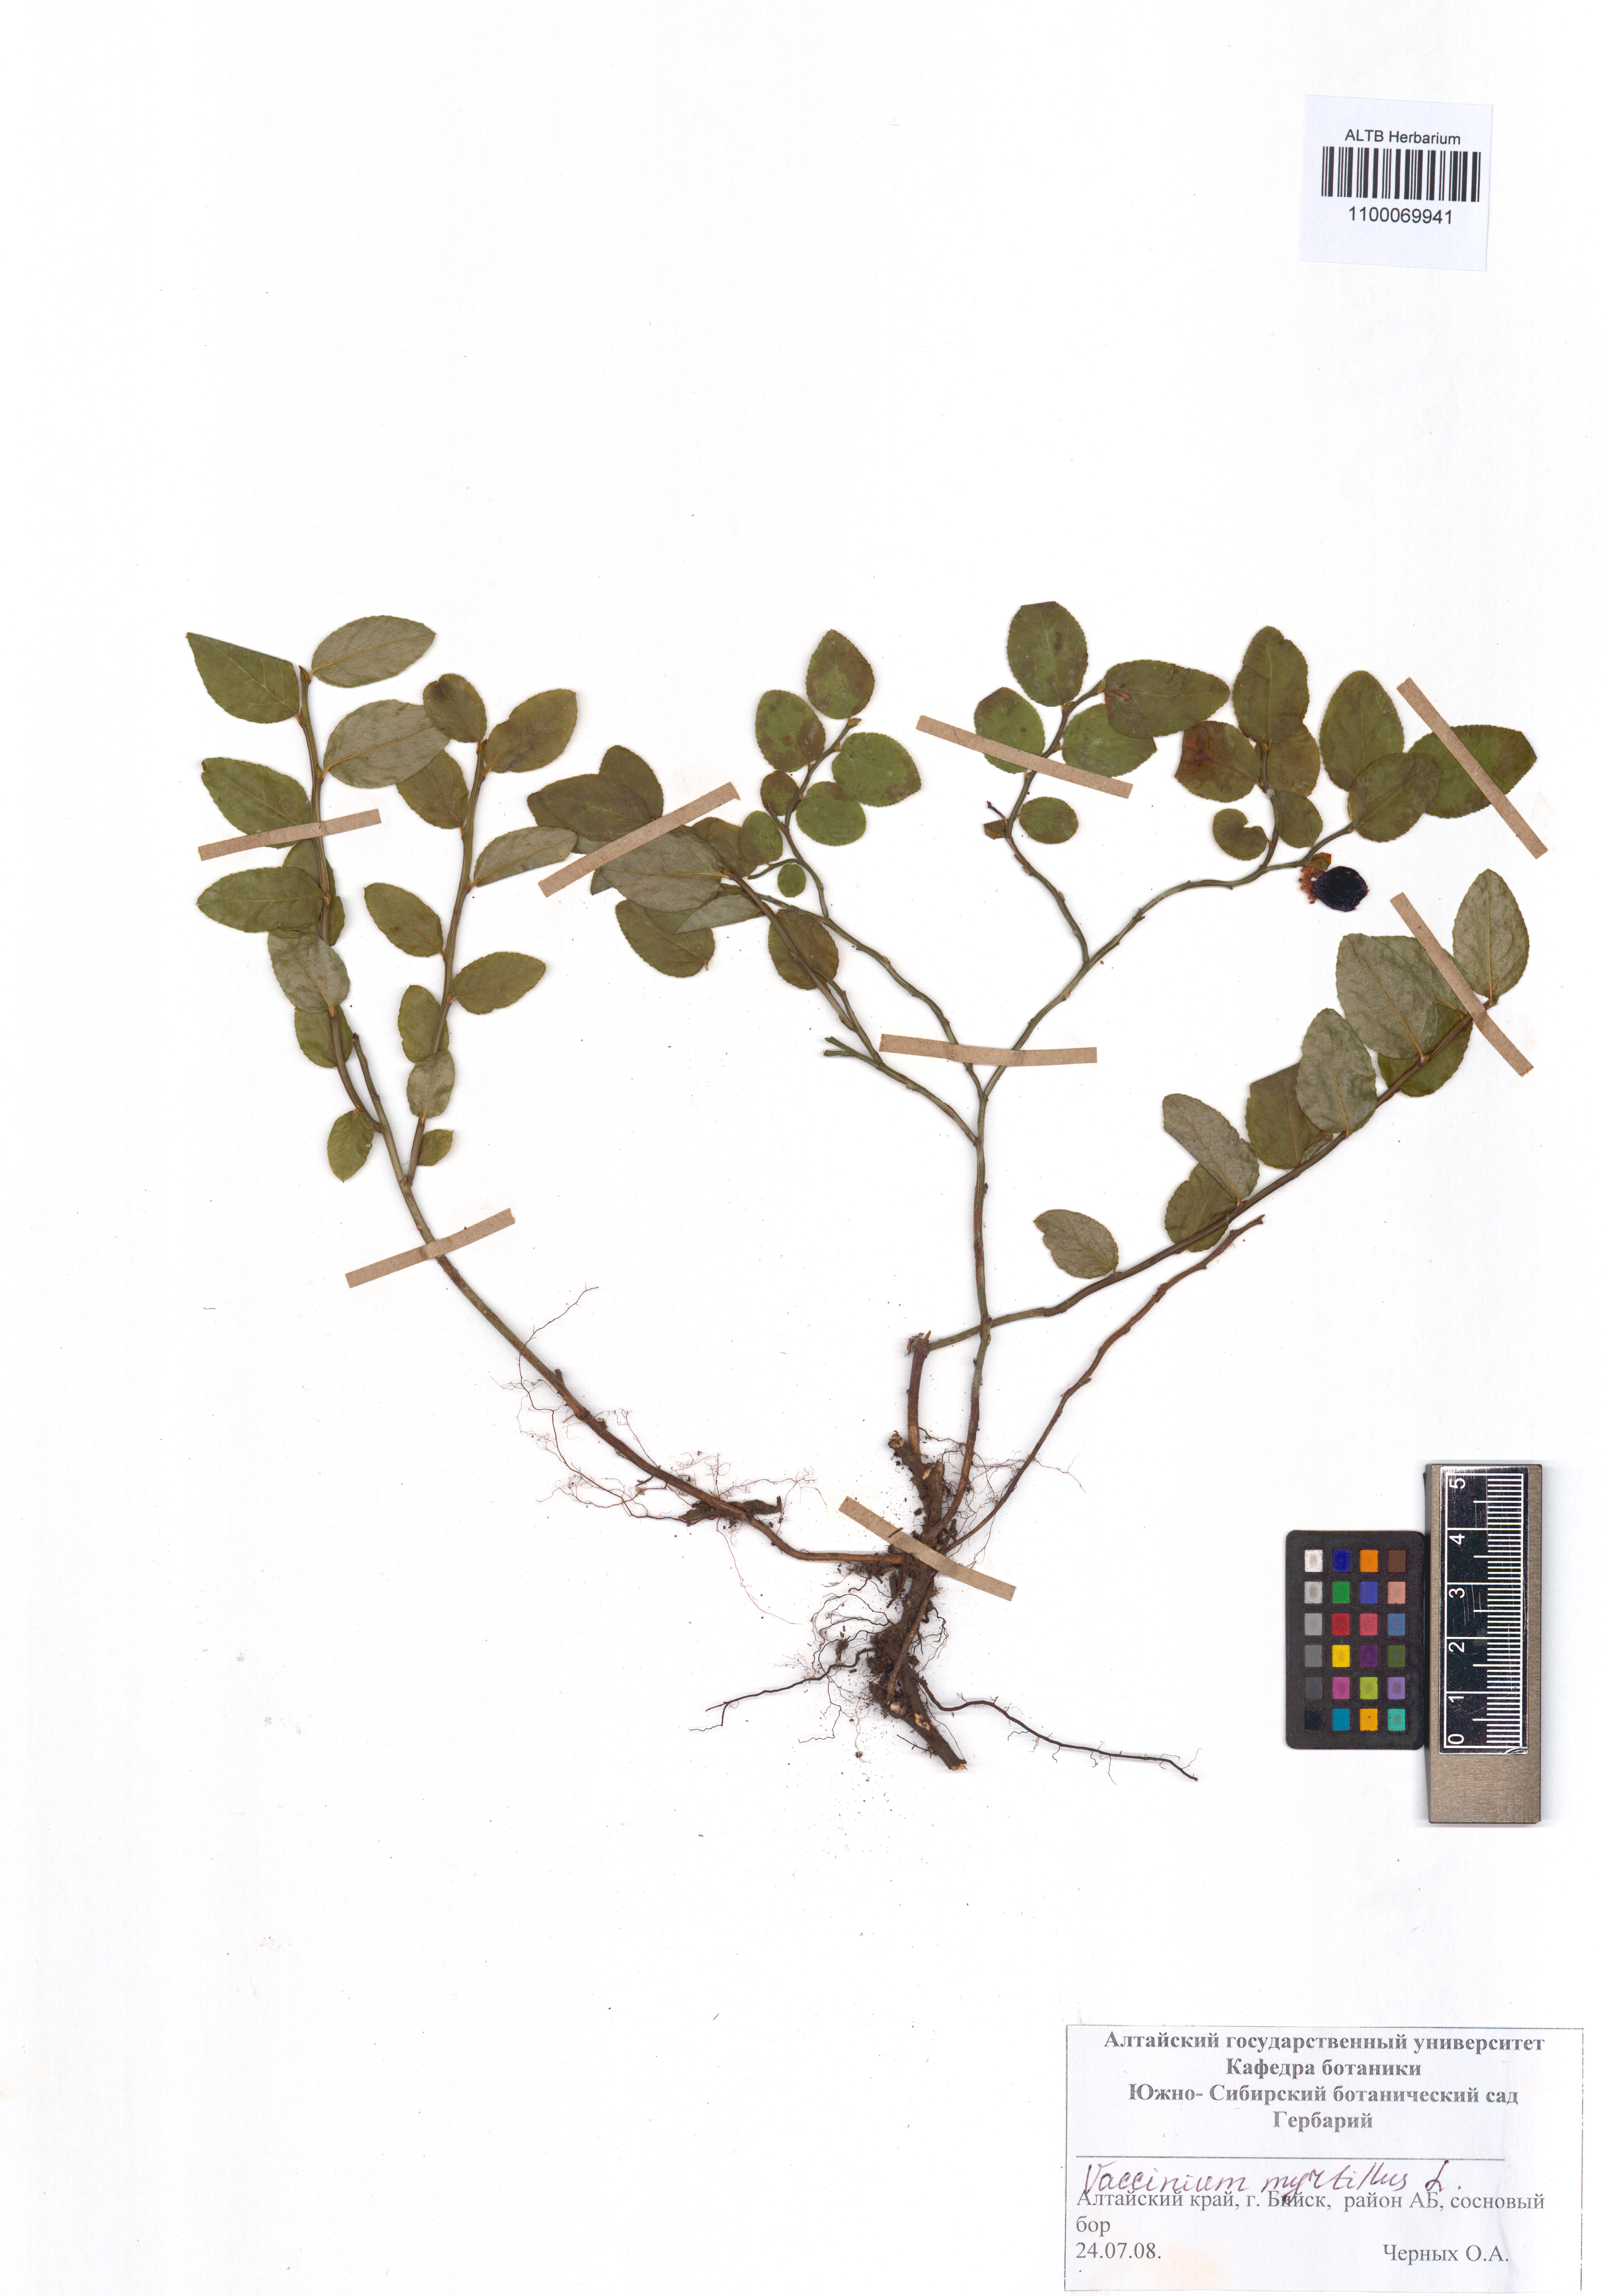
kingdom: Plantae
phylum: Tracheophyta
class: Magnoliopsida
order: Ericales
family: Ericaceae
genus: Vaccinium
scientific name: Vaccinium myrtillus
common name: Bilberry
